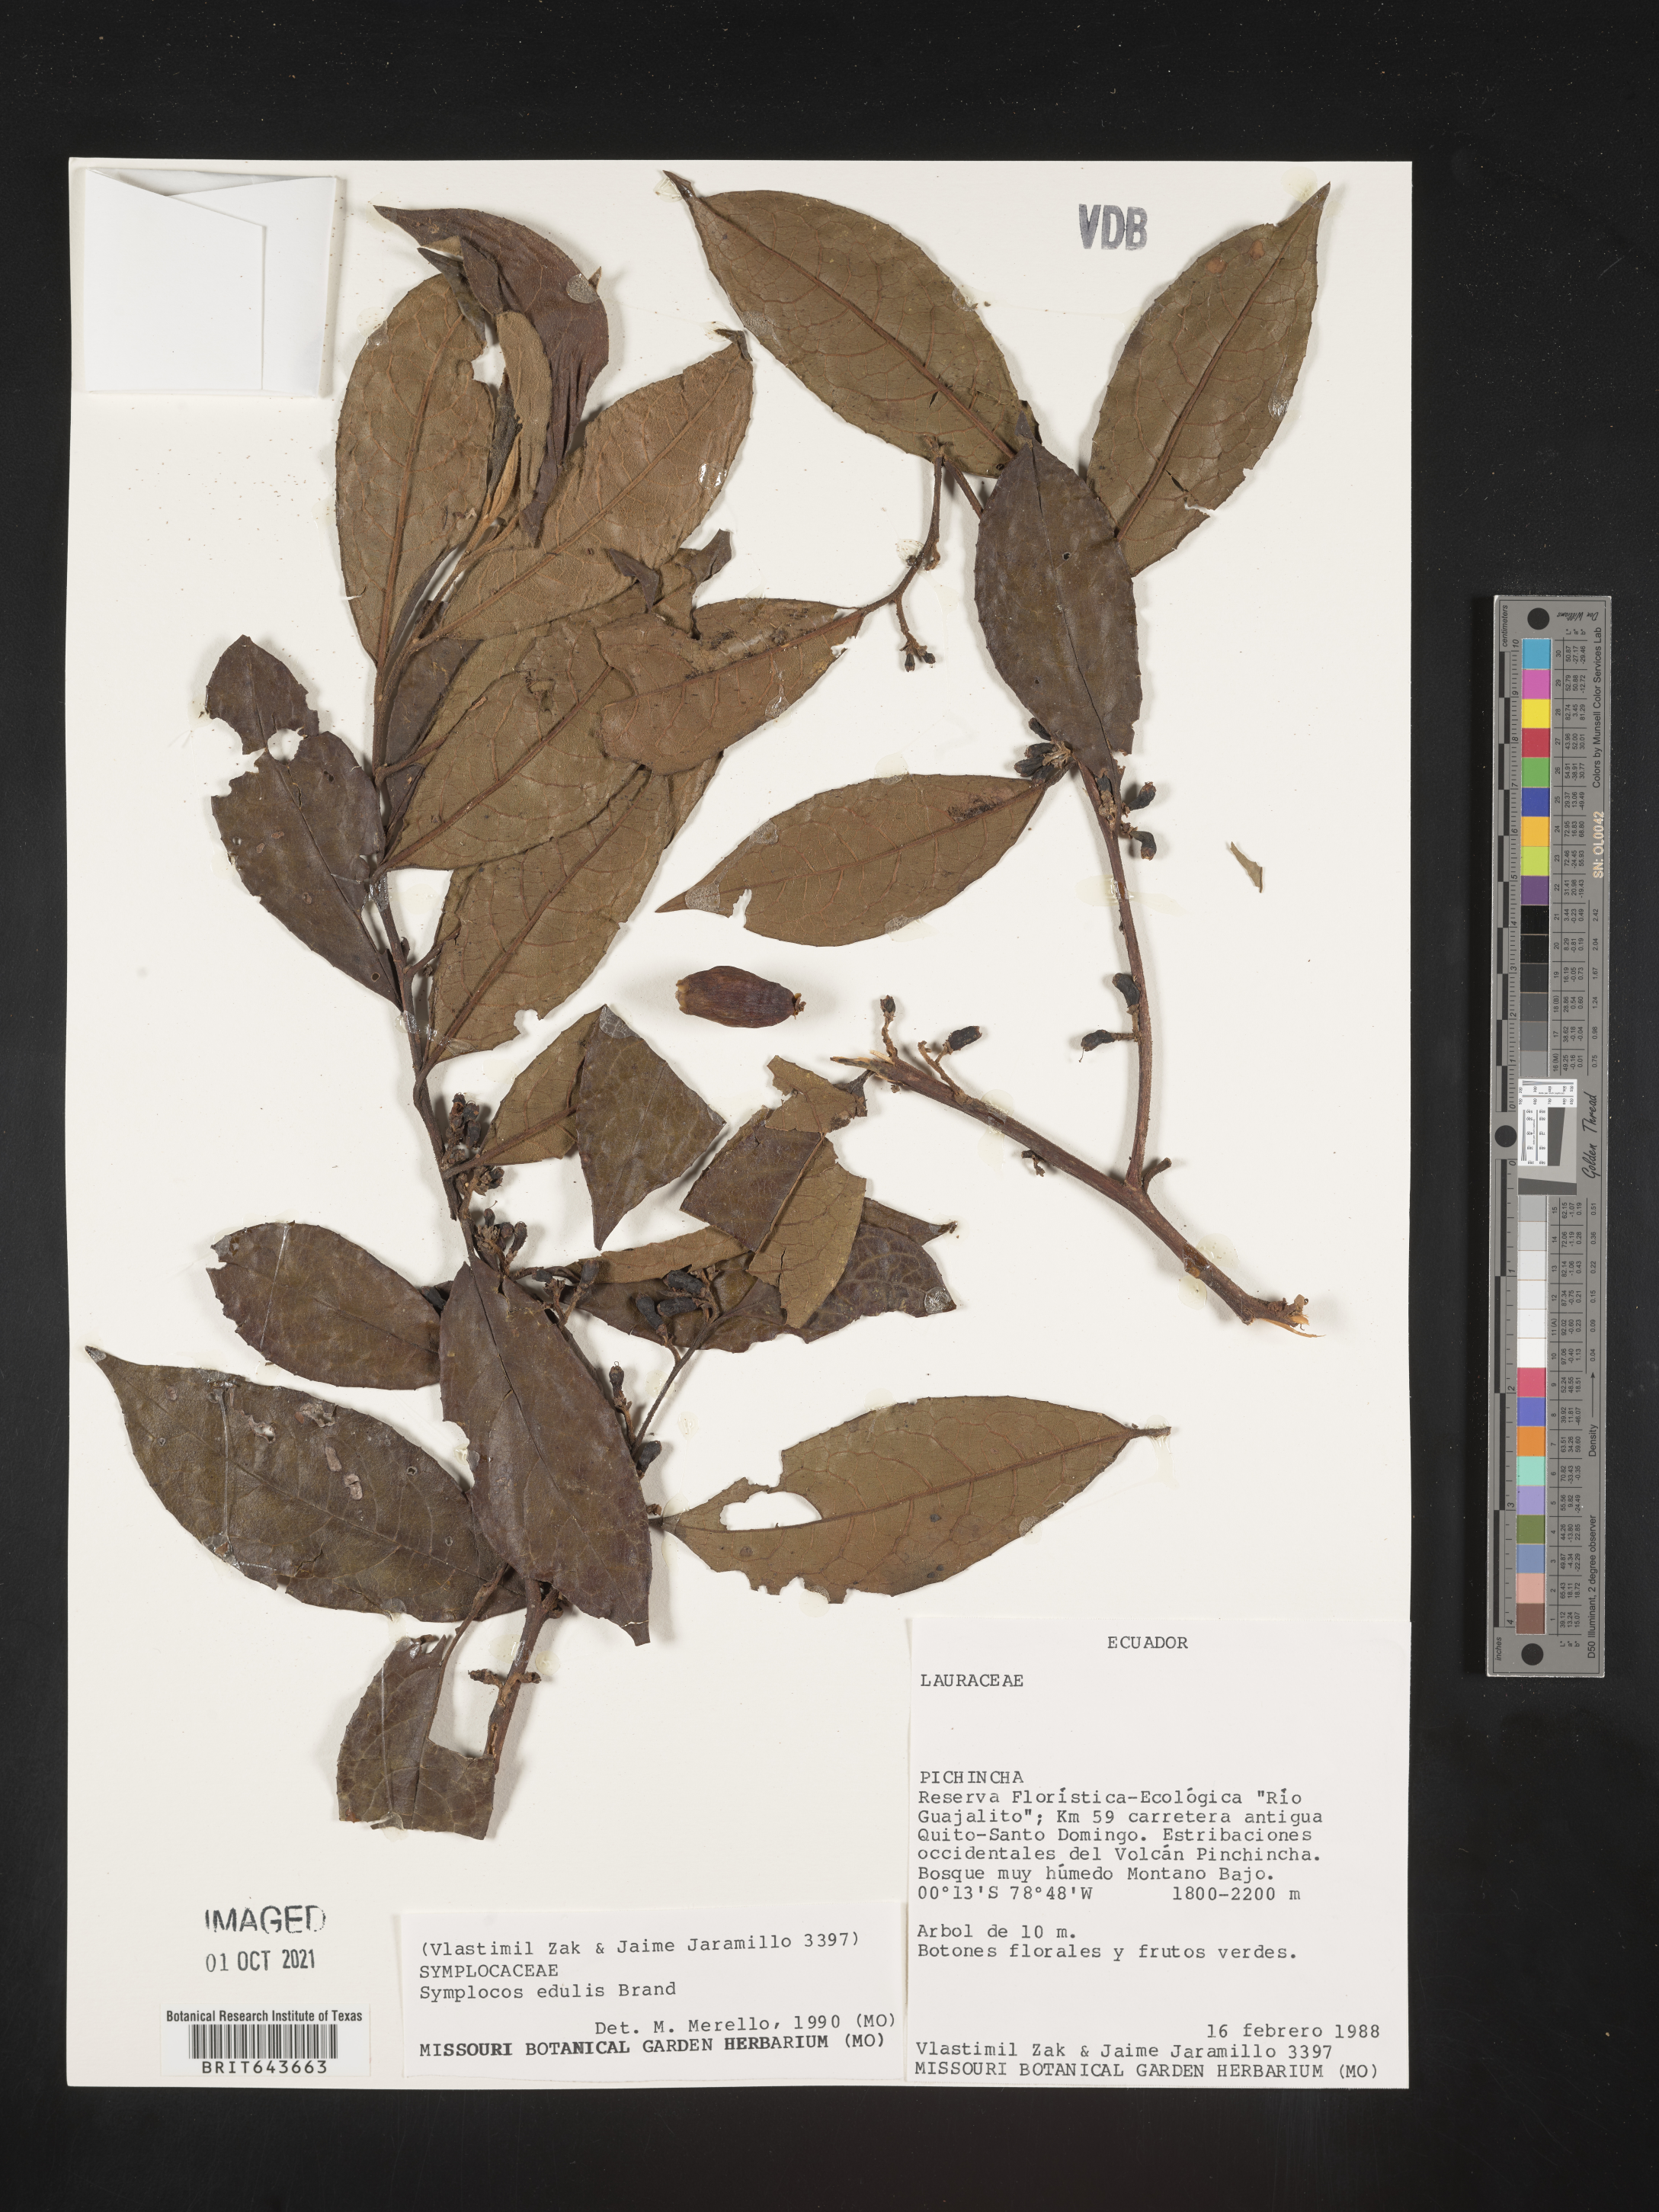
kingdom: Plantae
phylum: Tracheophyta
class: Magnoliopsida
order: Ericales
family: Symplocaceae
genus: Symplocos
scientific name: Symplocos
